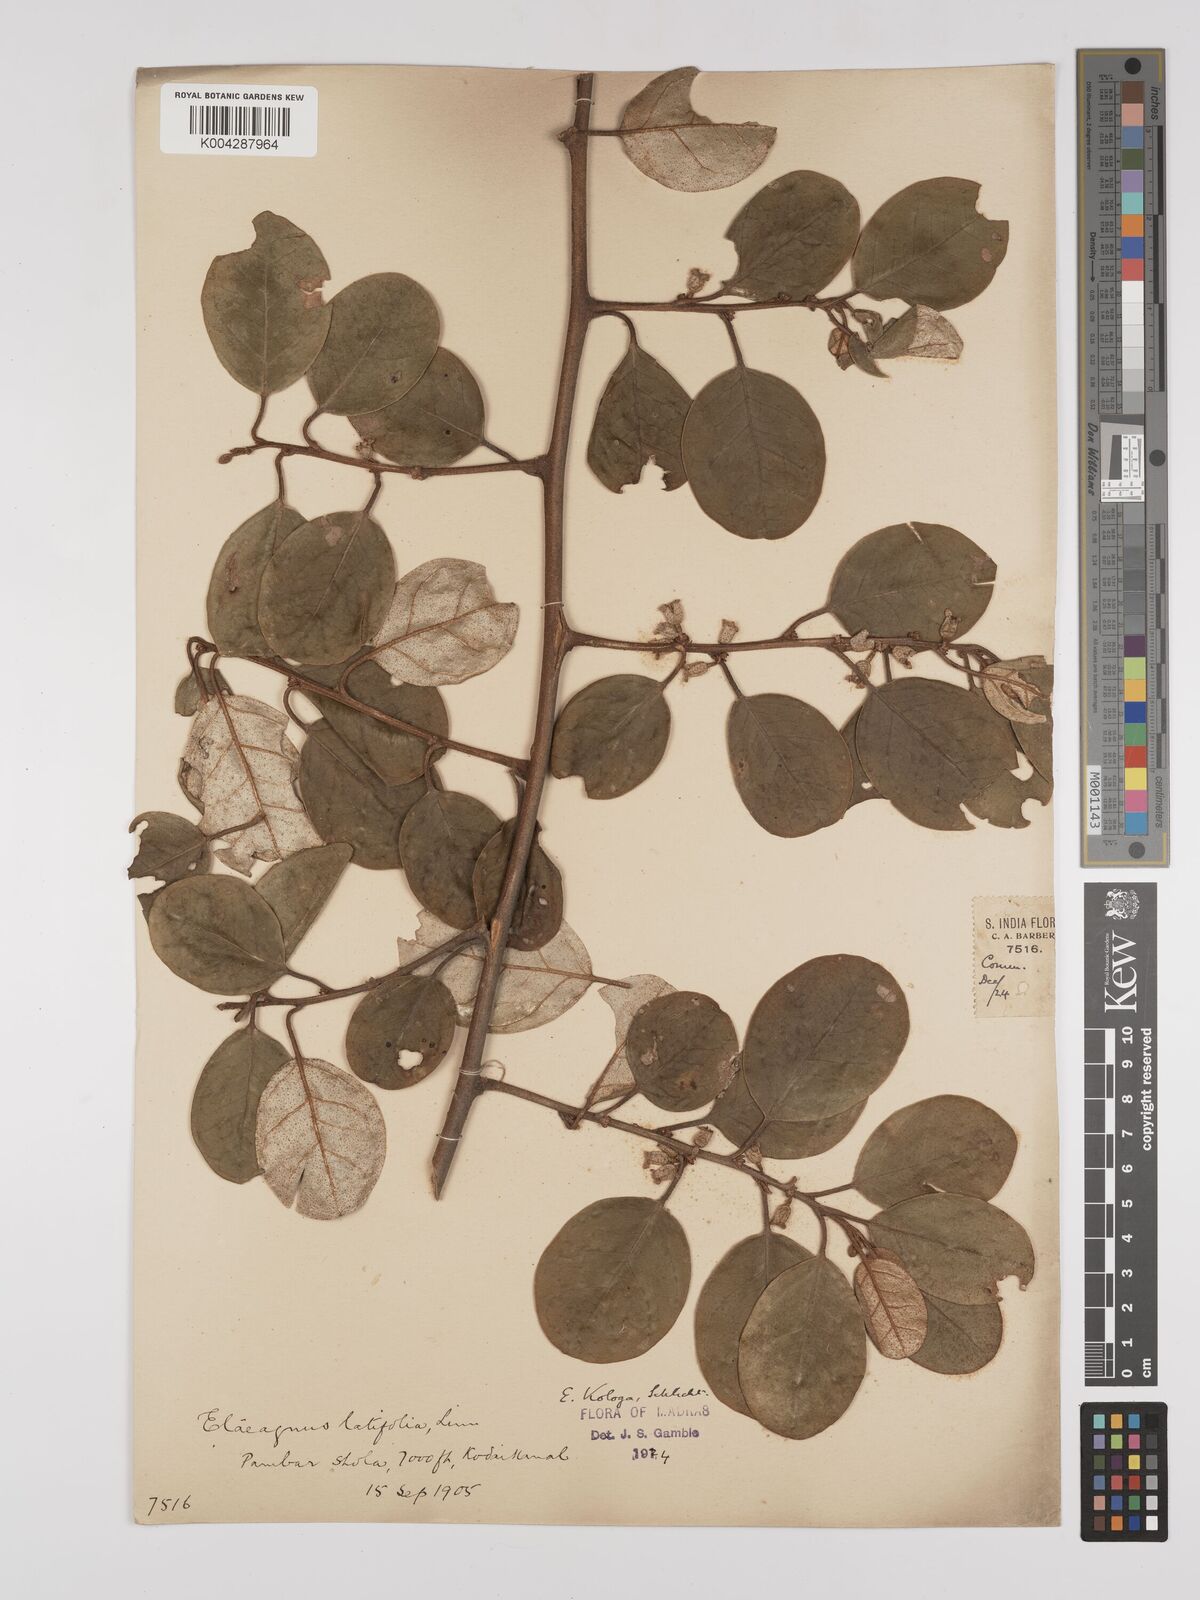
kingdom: Plantae
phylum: Tracheophyta
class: Magnoliopsida
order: Rosales
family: Elaeagnaceae
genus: Elaeagnus
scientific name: Elaeagnus conferta
